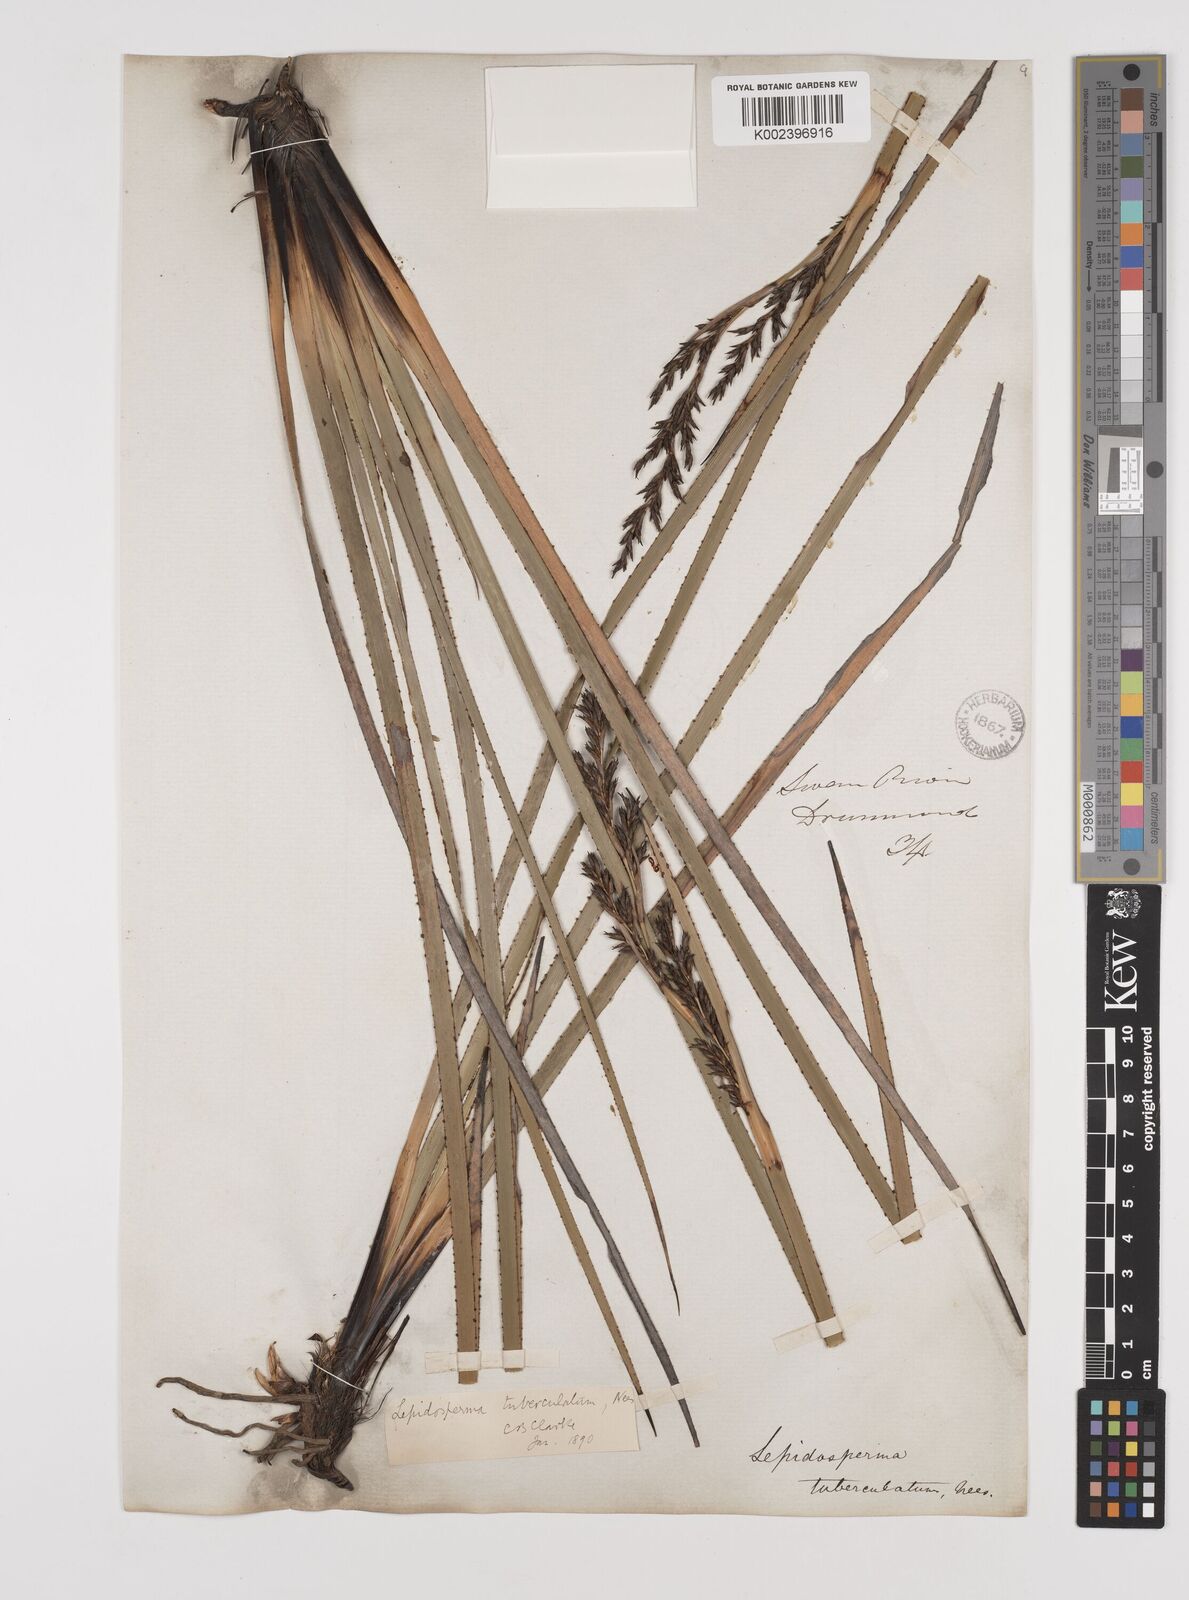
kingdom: Plantae
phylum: Tracheophyta
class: Liliopsida
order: Poales
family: Cyperaceae
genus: Lepidosperma
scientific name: Lepidosperma tuberculatum
